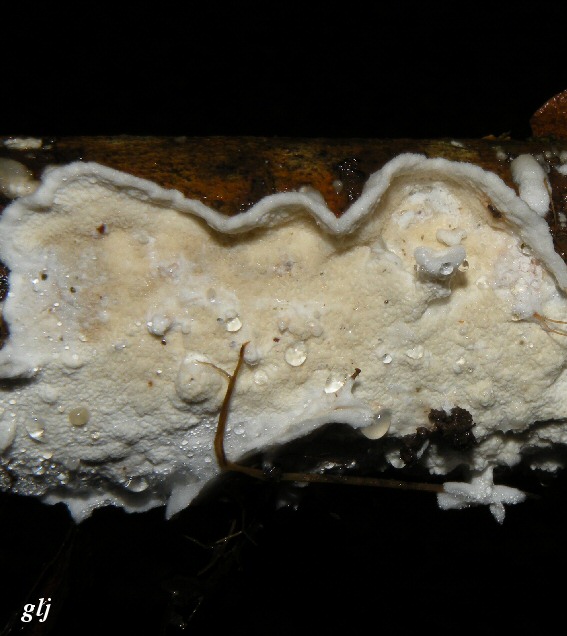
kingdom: Fungi
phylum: Basidiomycota
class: Agaricomycetes
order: Polyporales
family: Irpicaceae
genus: Byssomerulius
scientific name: Byssomerulius corium
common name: læder-åresvamp
